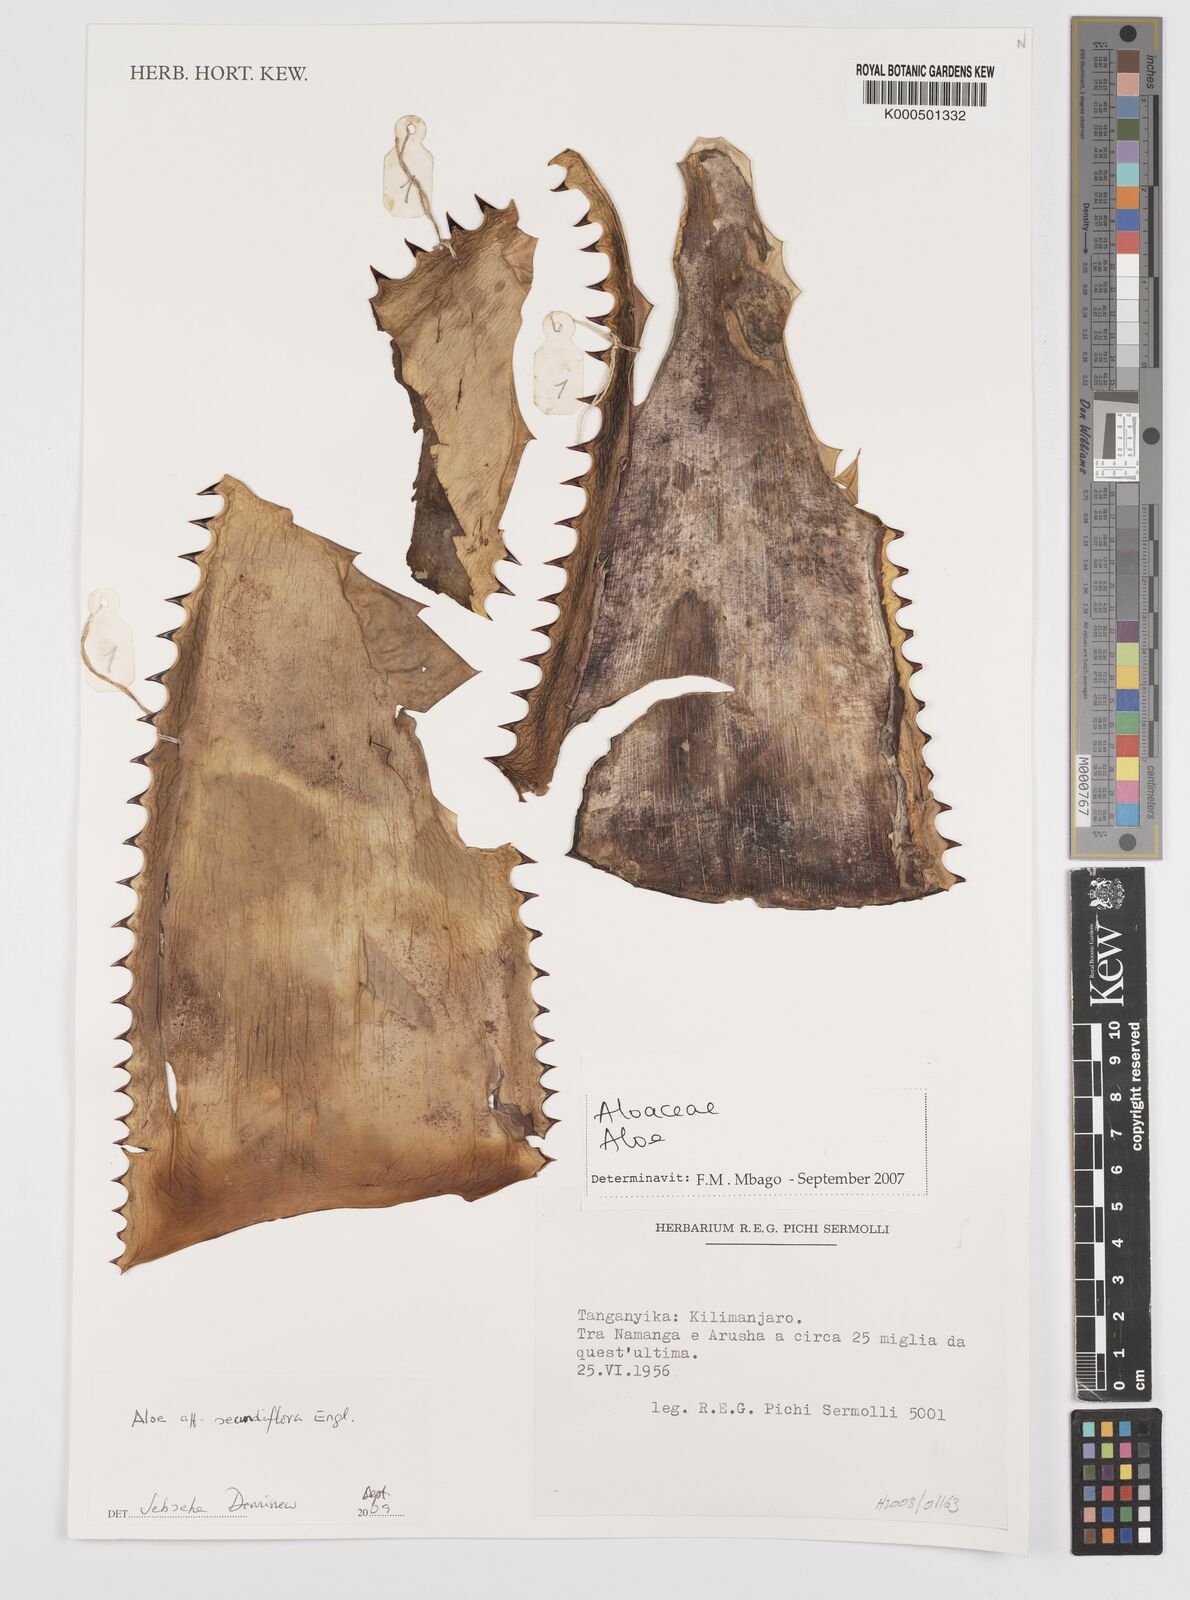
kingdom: Plantae
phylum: Tracheophyta
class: Liliopsida
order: Asparagales
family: Asphodelaceae
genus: Aloe
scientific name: Aloe secundiflora
